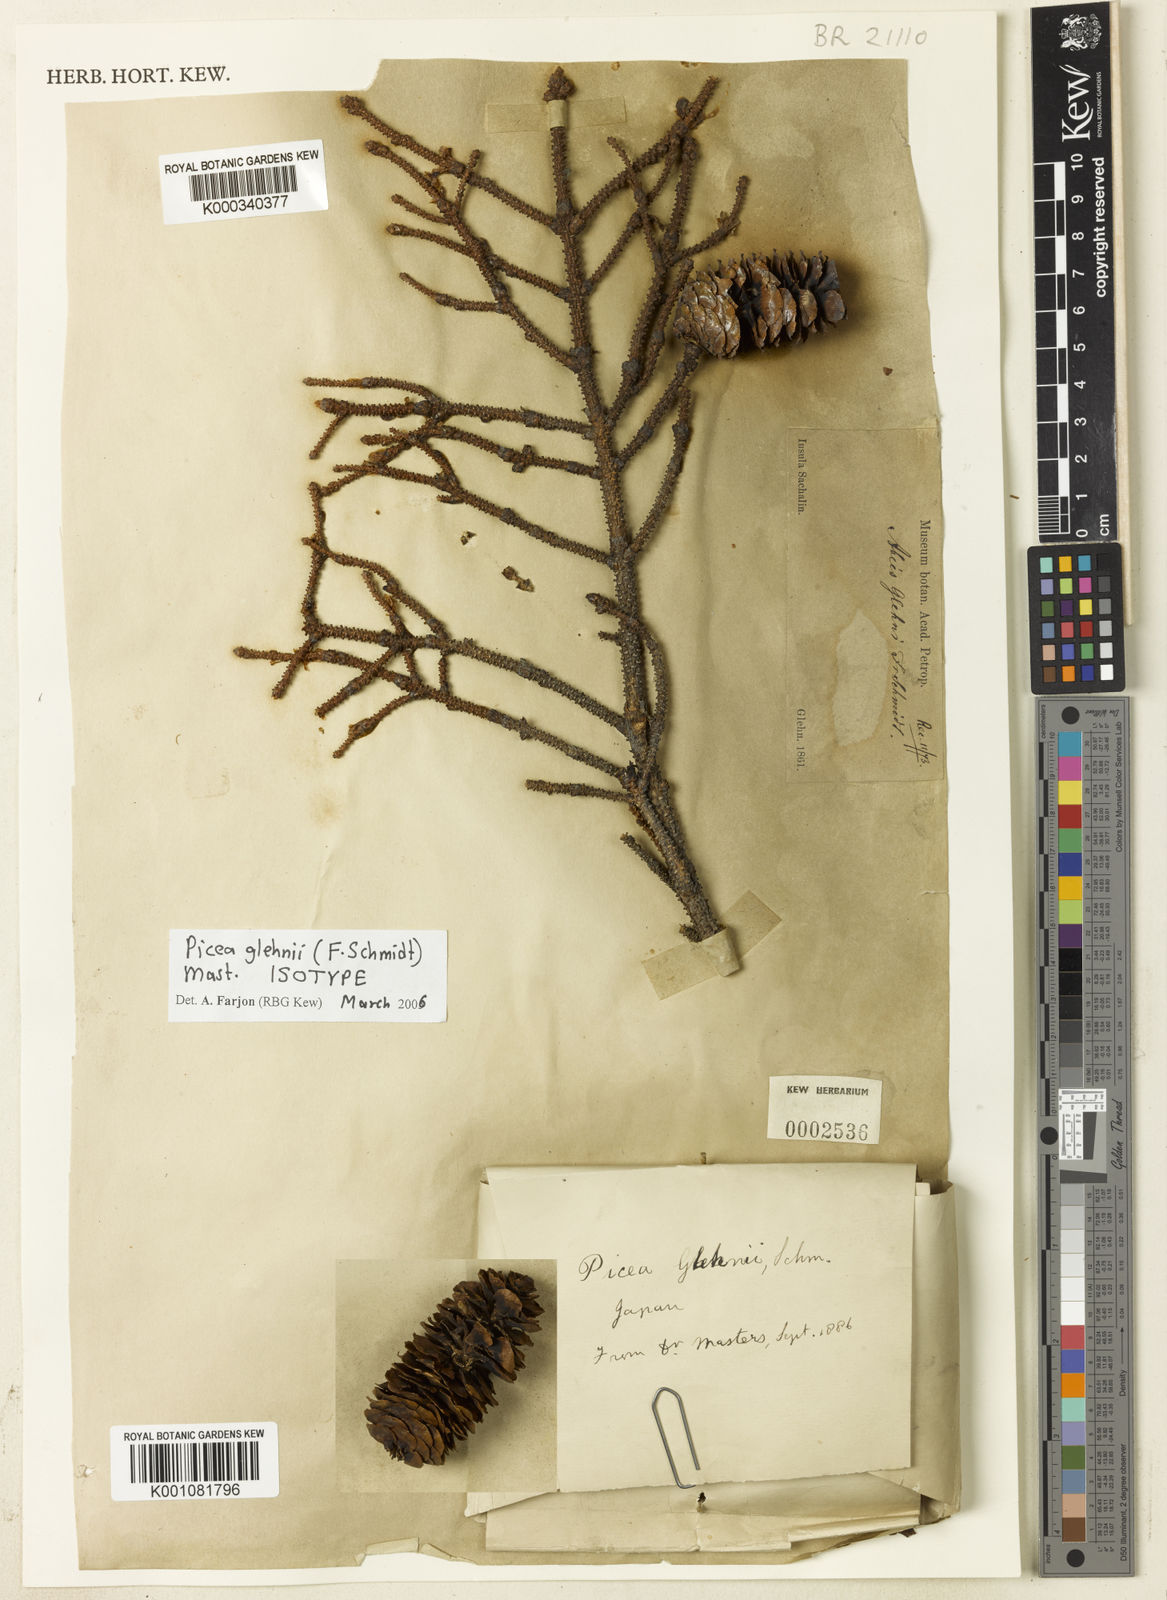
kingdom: Plantae
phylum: Tracheophyta
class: Pinopsida
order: Pinales
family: Pinaceae
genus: Picea
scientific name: Picea glehnii
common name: Sakhalin spruce
